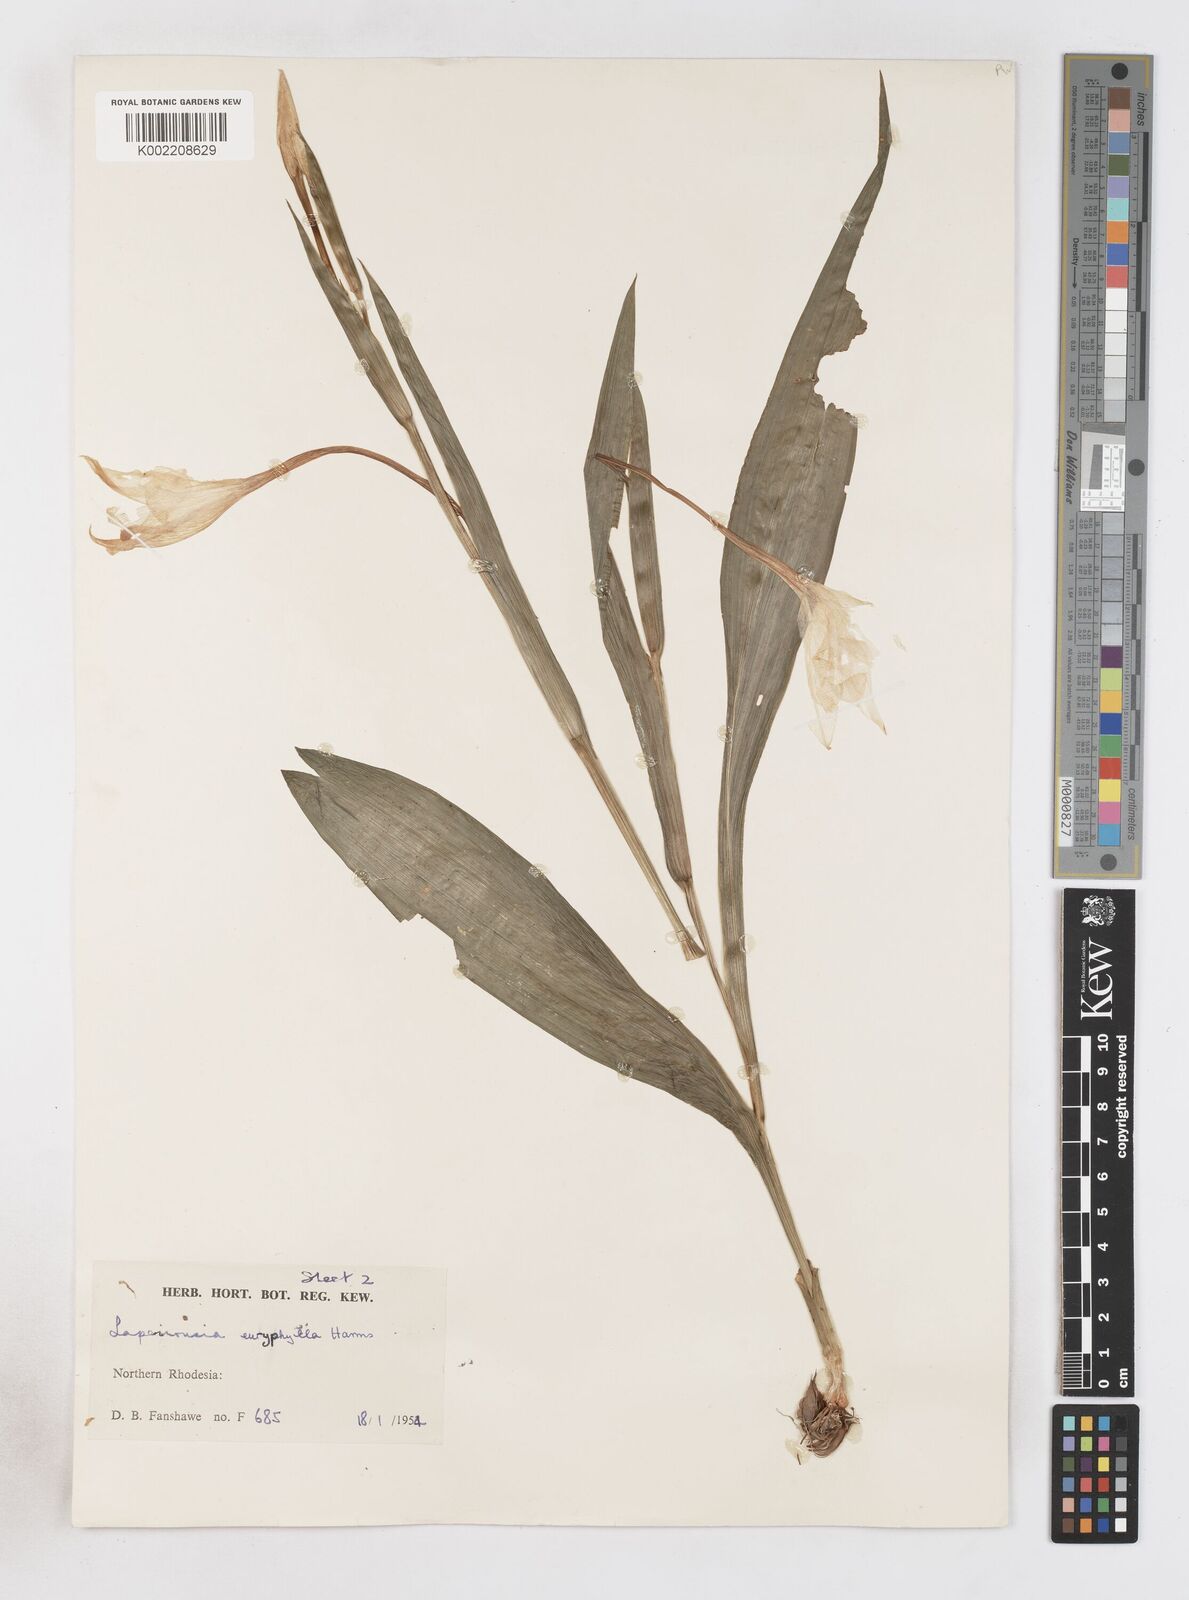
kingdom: Plantae
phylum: Tracheophyta
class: Liliopsida
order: Asparagales
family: Iridaceae
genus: Savannosiphon
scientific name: Savannosiphon euryphylla
